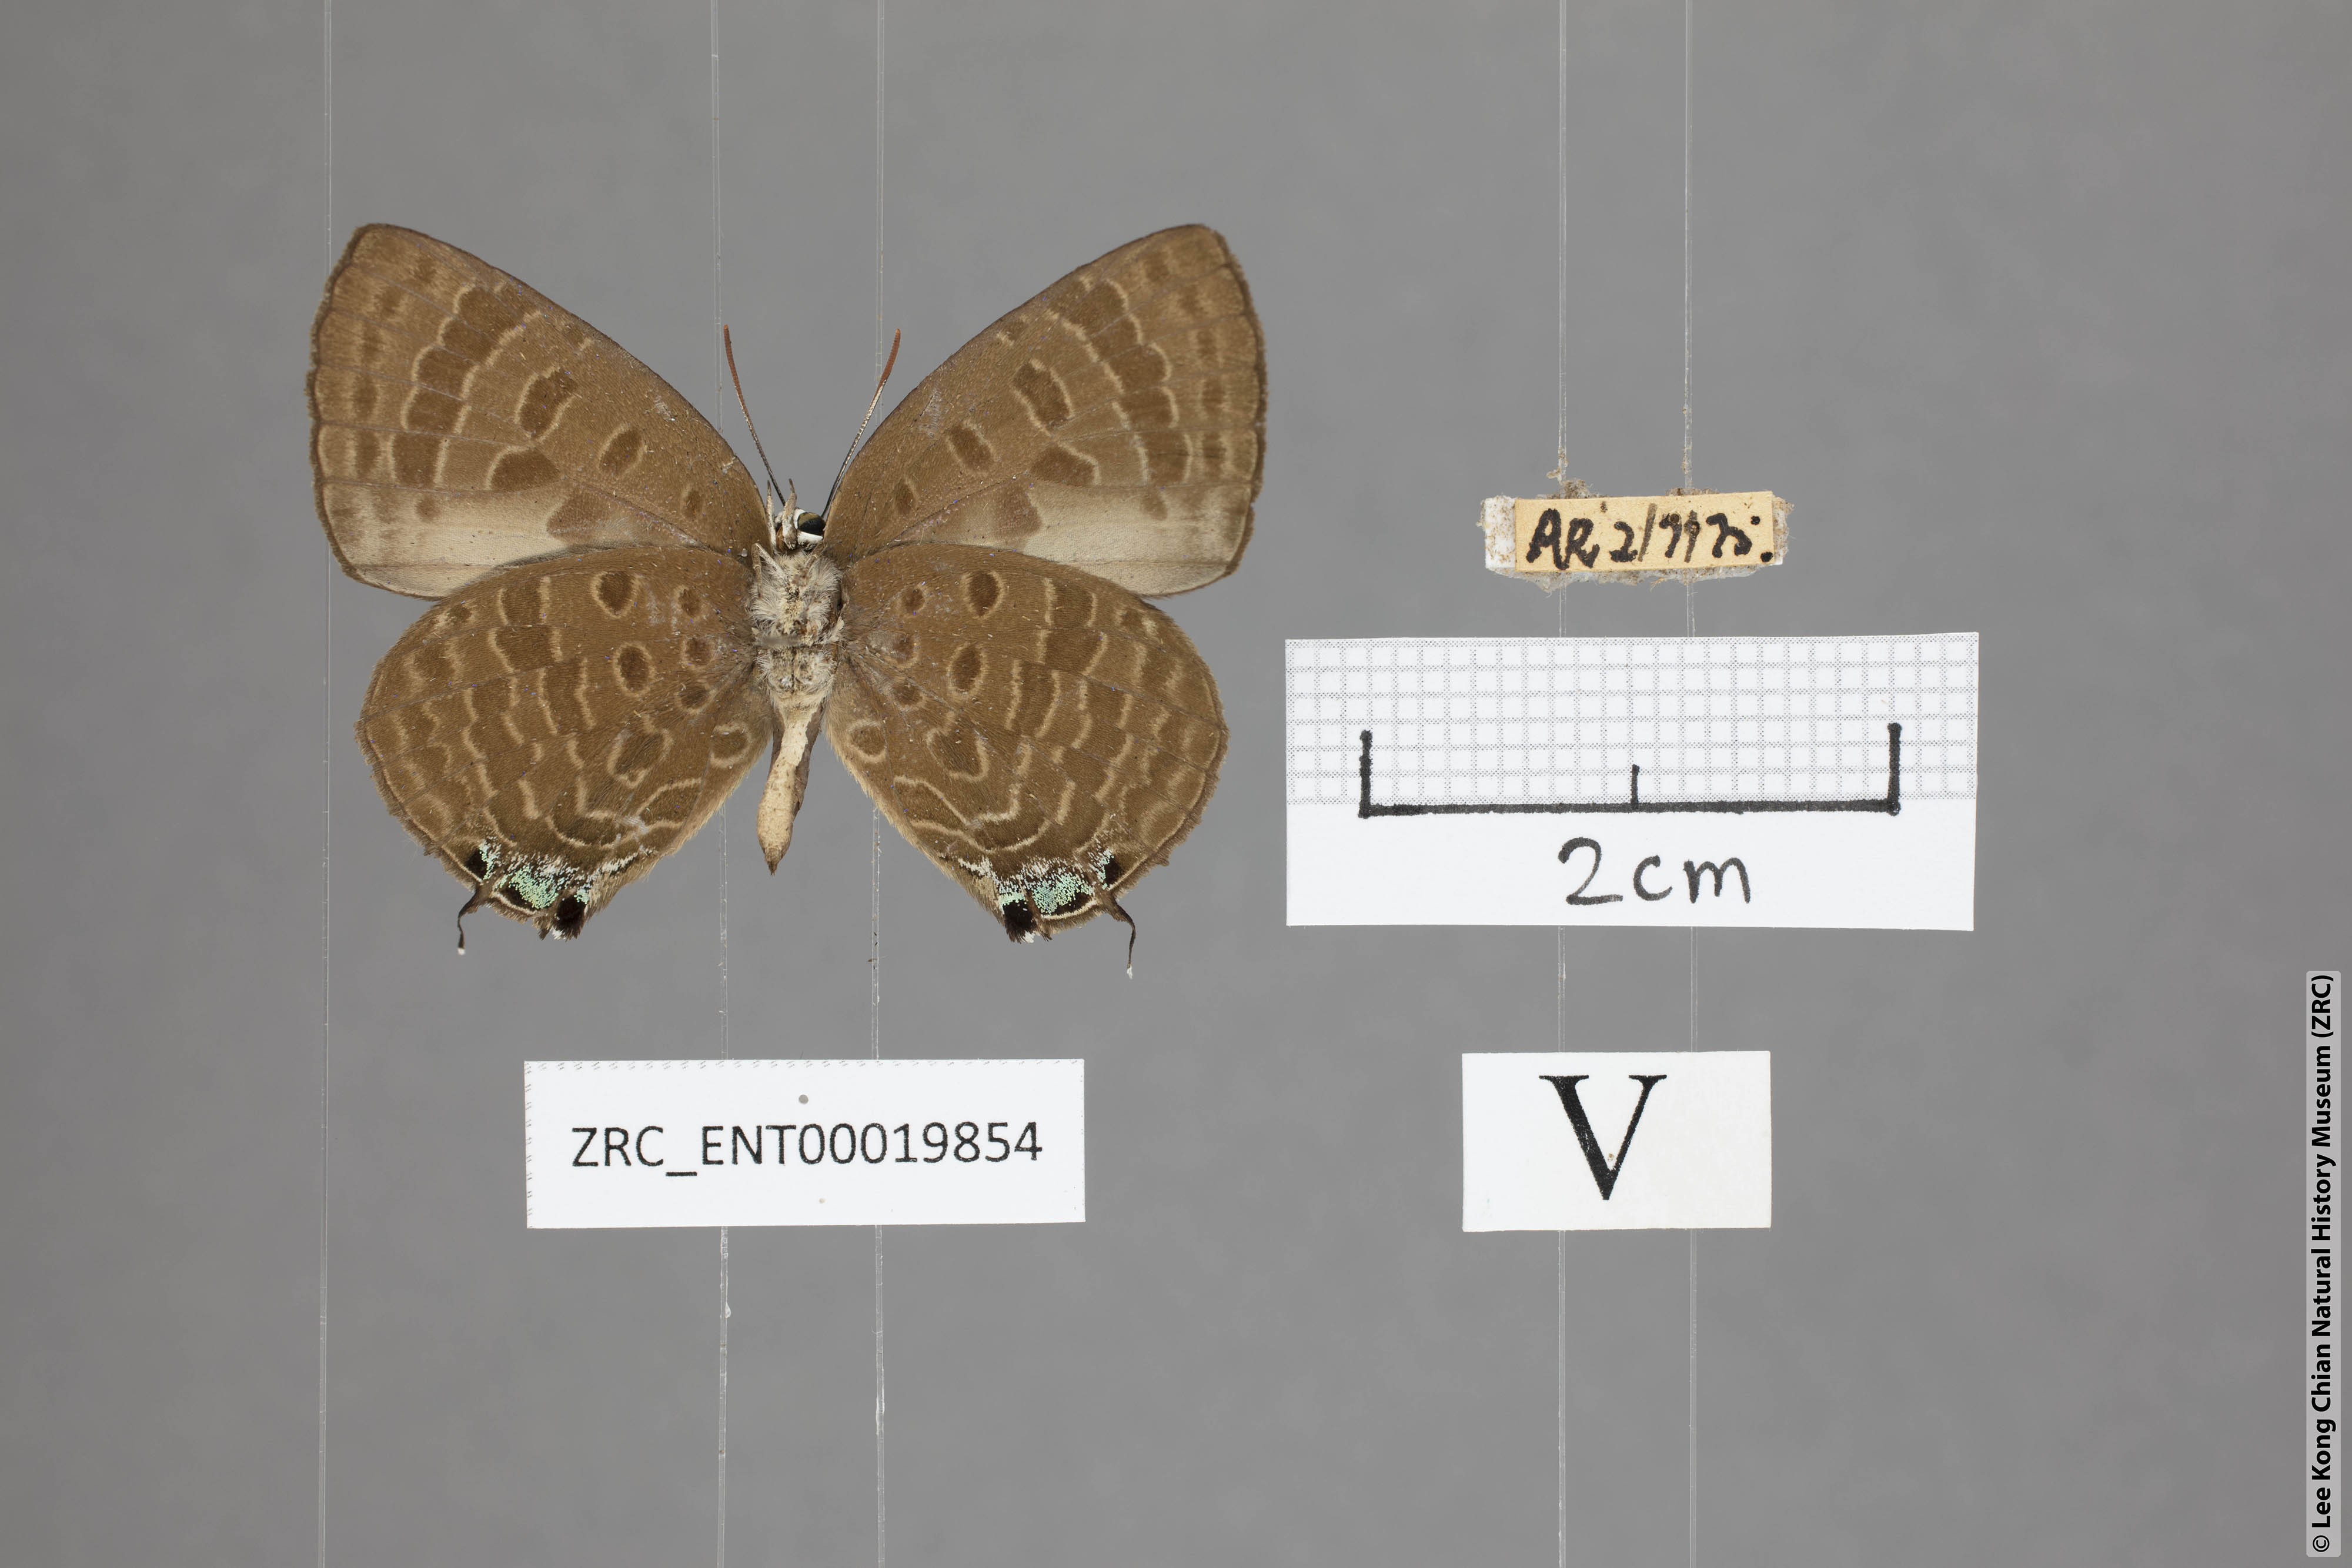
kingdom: Animalia
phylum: Arthropoda
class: Insecta
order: Lepidoptera
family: Lycaenidae
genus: Arhopala
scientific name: Arhopala sublustris
